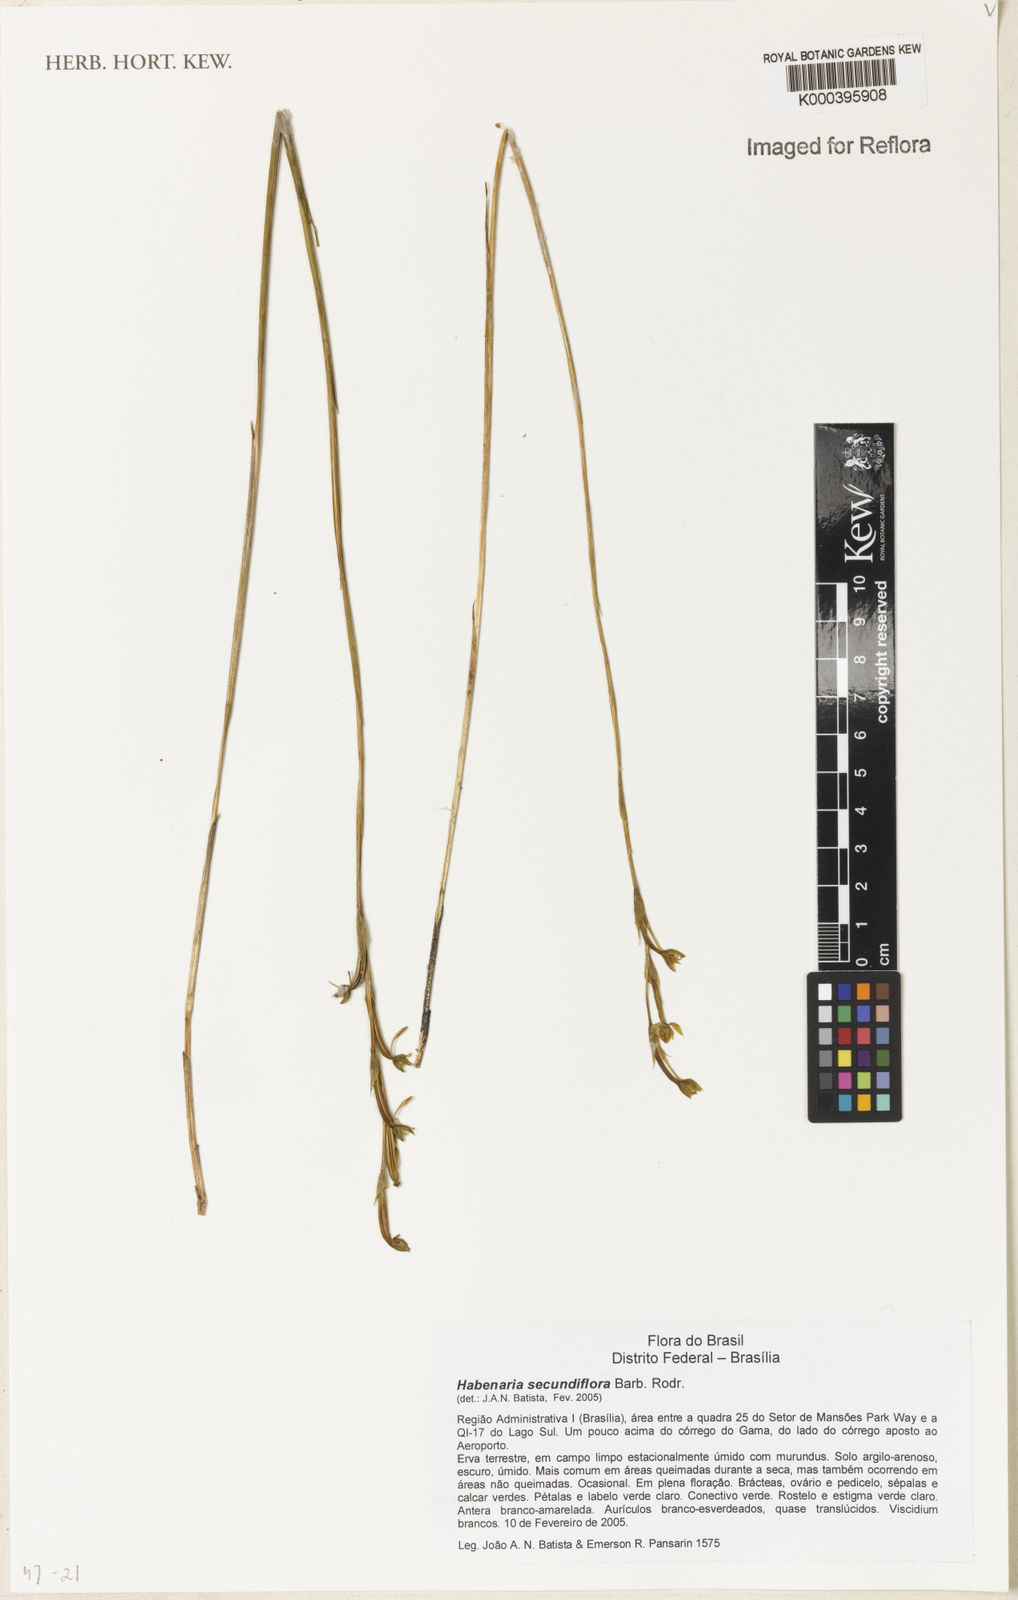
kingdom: Plantae
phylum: Tracheophyta
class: Liliopsida
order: Asparagales
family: Orchidaceae
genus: Habenaria
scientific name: Habenaria secundiflora
